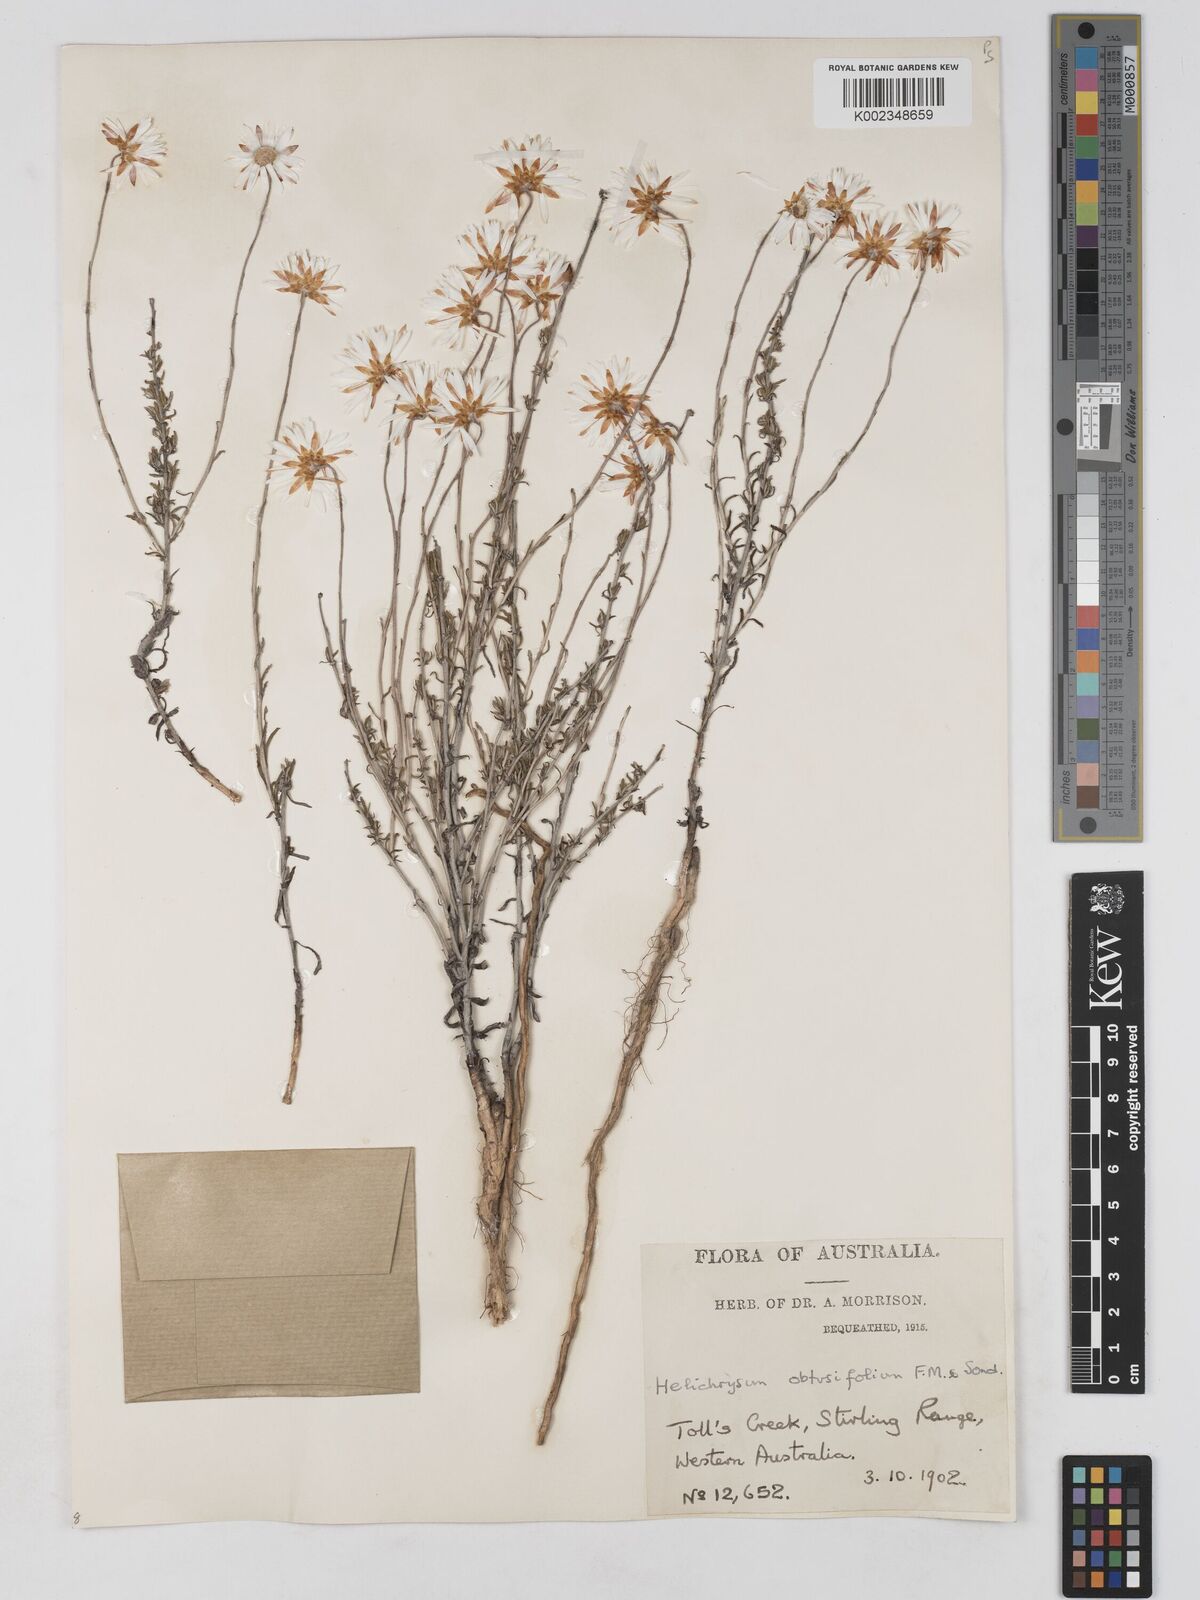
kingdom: Plantae
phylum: Tracheophyta
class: Magnoliopsida
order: Asterales
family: Asteraceae
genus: Argentipallium
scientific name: Argentipallium obtusifolium
